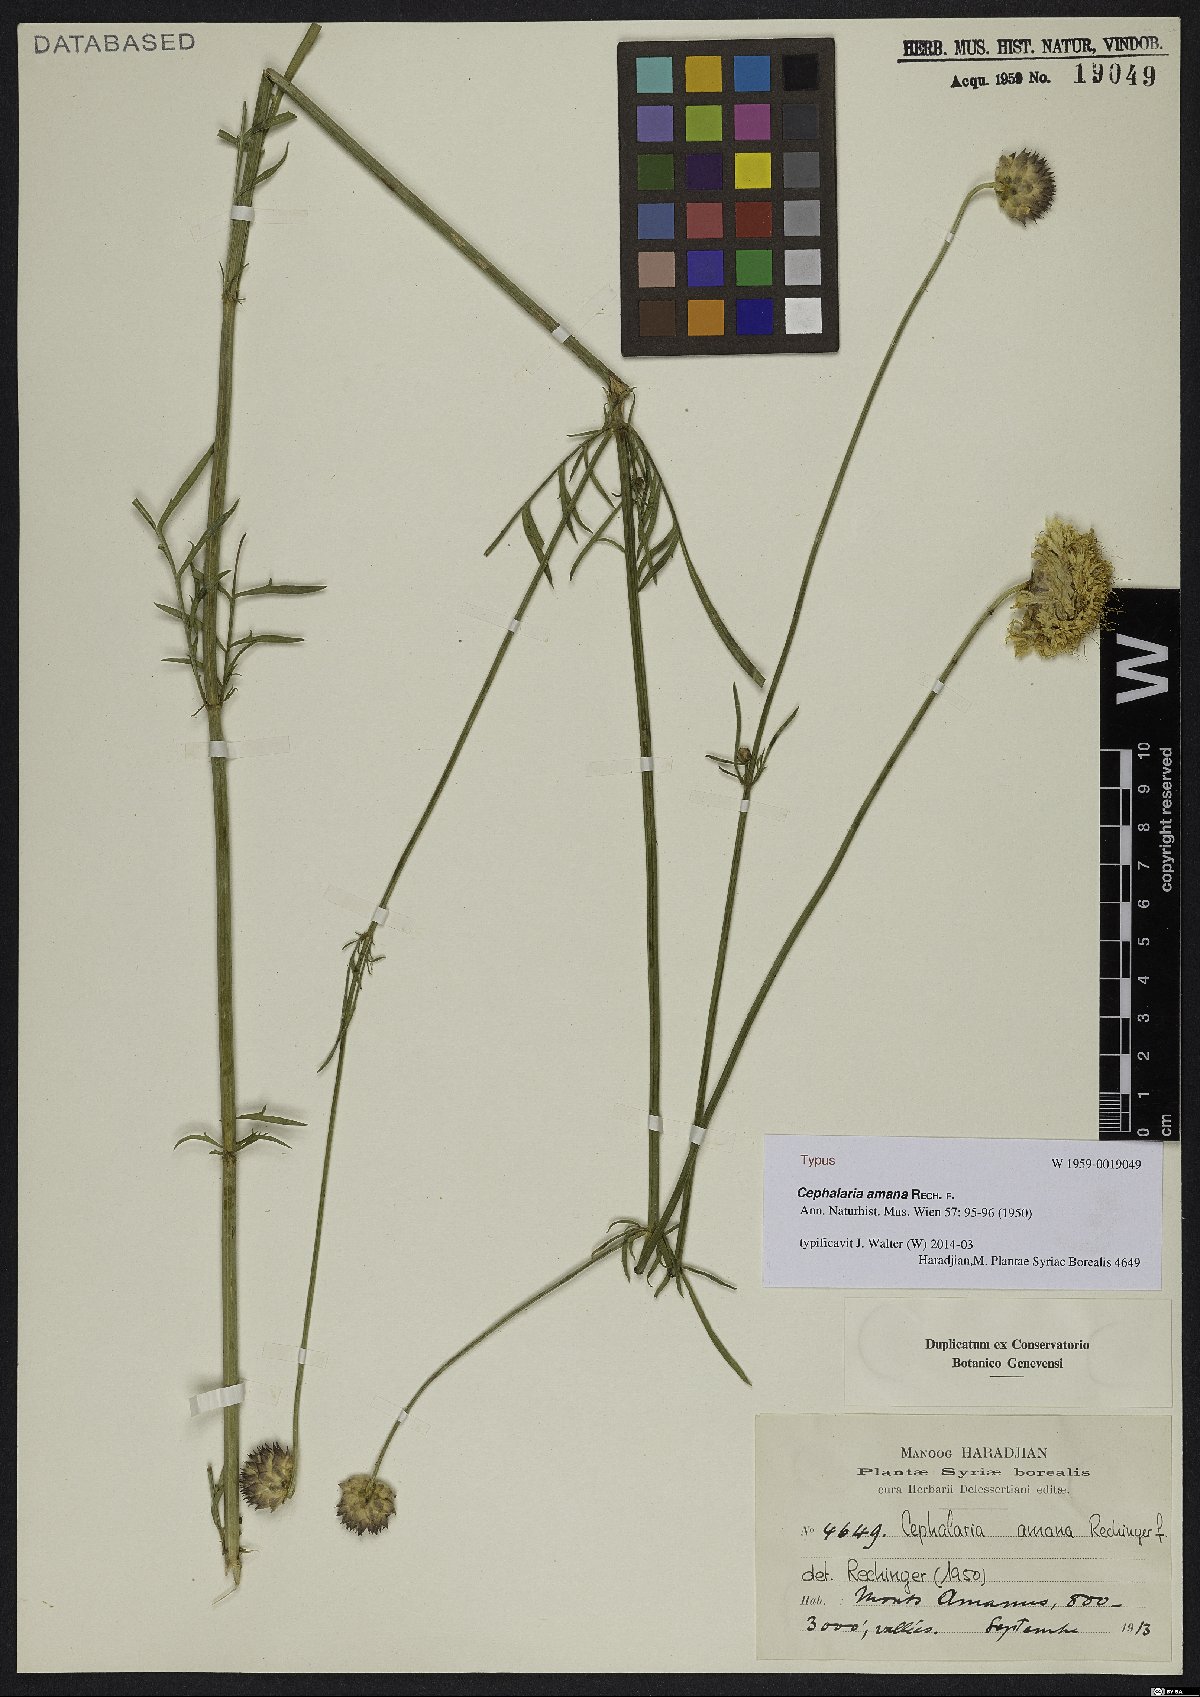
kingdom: Plantae
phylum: Tracheophyta
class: Magnoliopsida
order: Dipsacales
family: Caprifoliaceae
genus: Cephalaria
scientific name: Cephalaria taurica
